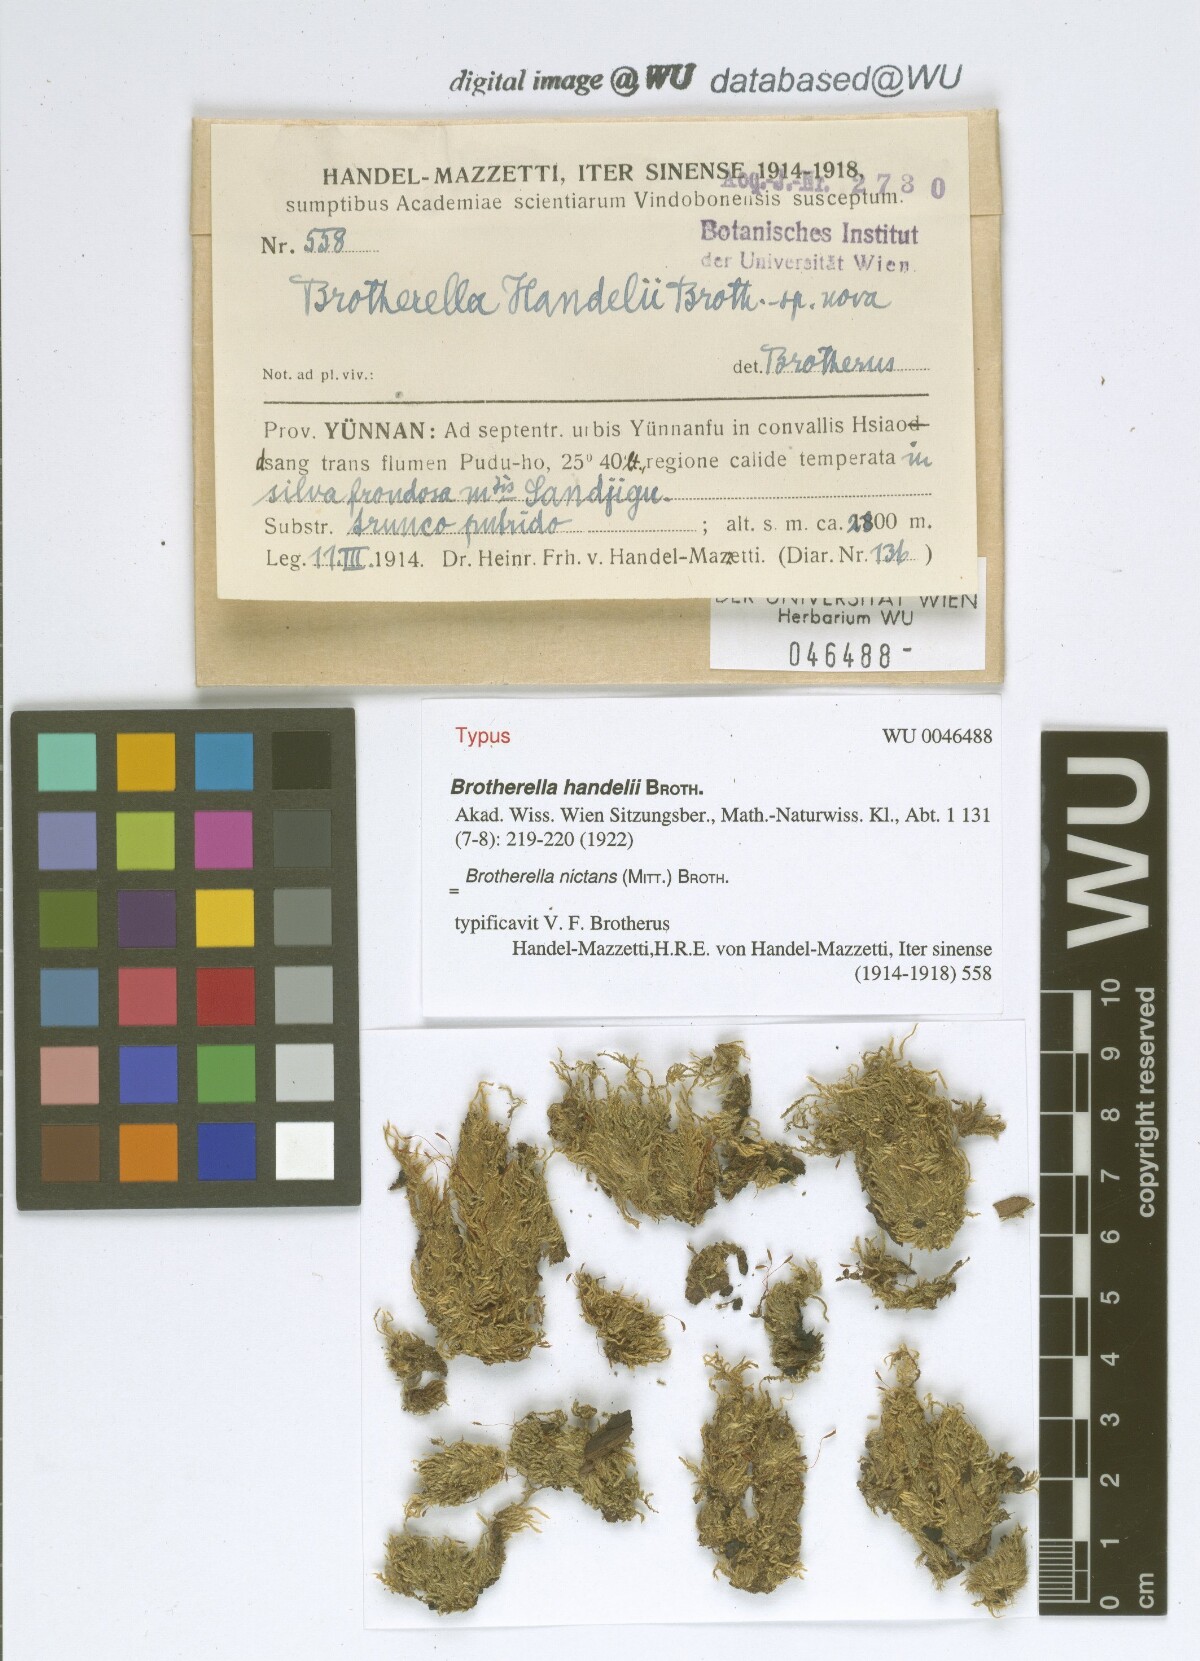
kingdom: Plantae
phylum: Bryophyta
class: Bryopsida
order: Hypnales
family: Pylaisiadelphaceae
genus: Brotherella
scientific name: Brotherella nictans
